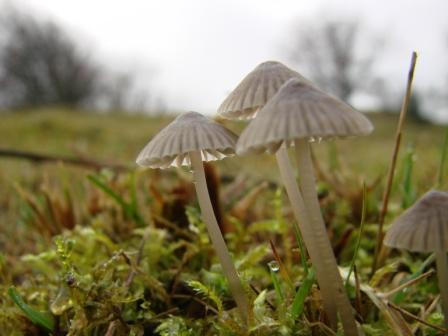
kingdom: Fungi
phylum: Basidiomycota
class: Agaricomycetes
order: Agaricales
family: Mycenaceae
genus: Mycena
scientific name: Mycena leptocephala
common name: klor-huesvamp
